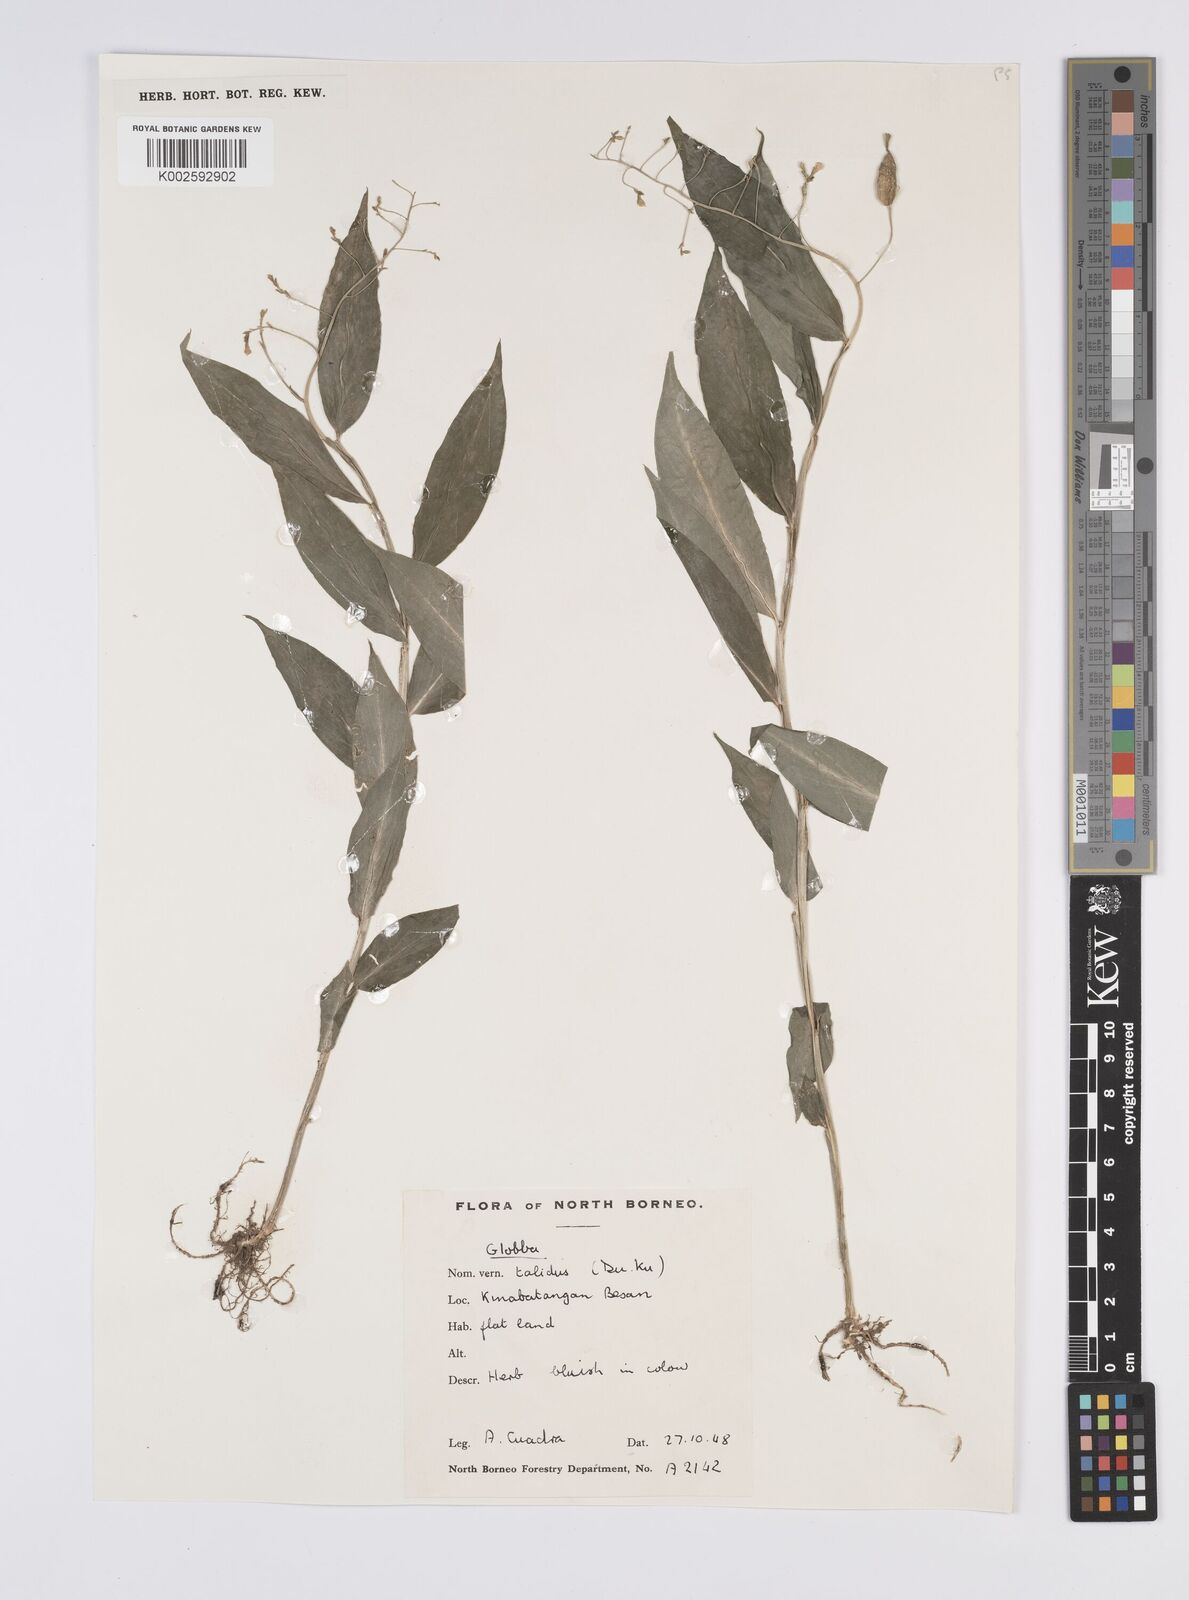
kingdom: Plantae
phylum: Tracheophyta
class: Liliopsida
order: Zingiberales
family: Zingiberaceae
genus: Globba
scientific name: Globba francisci
